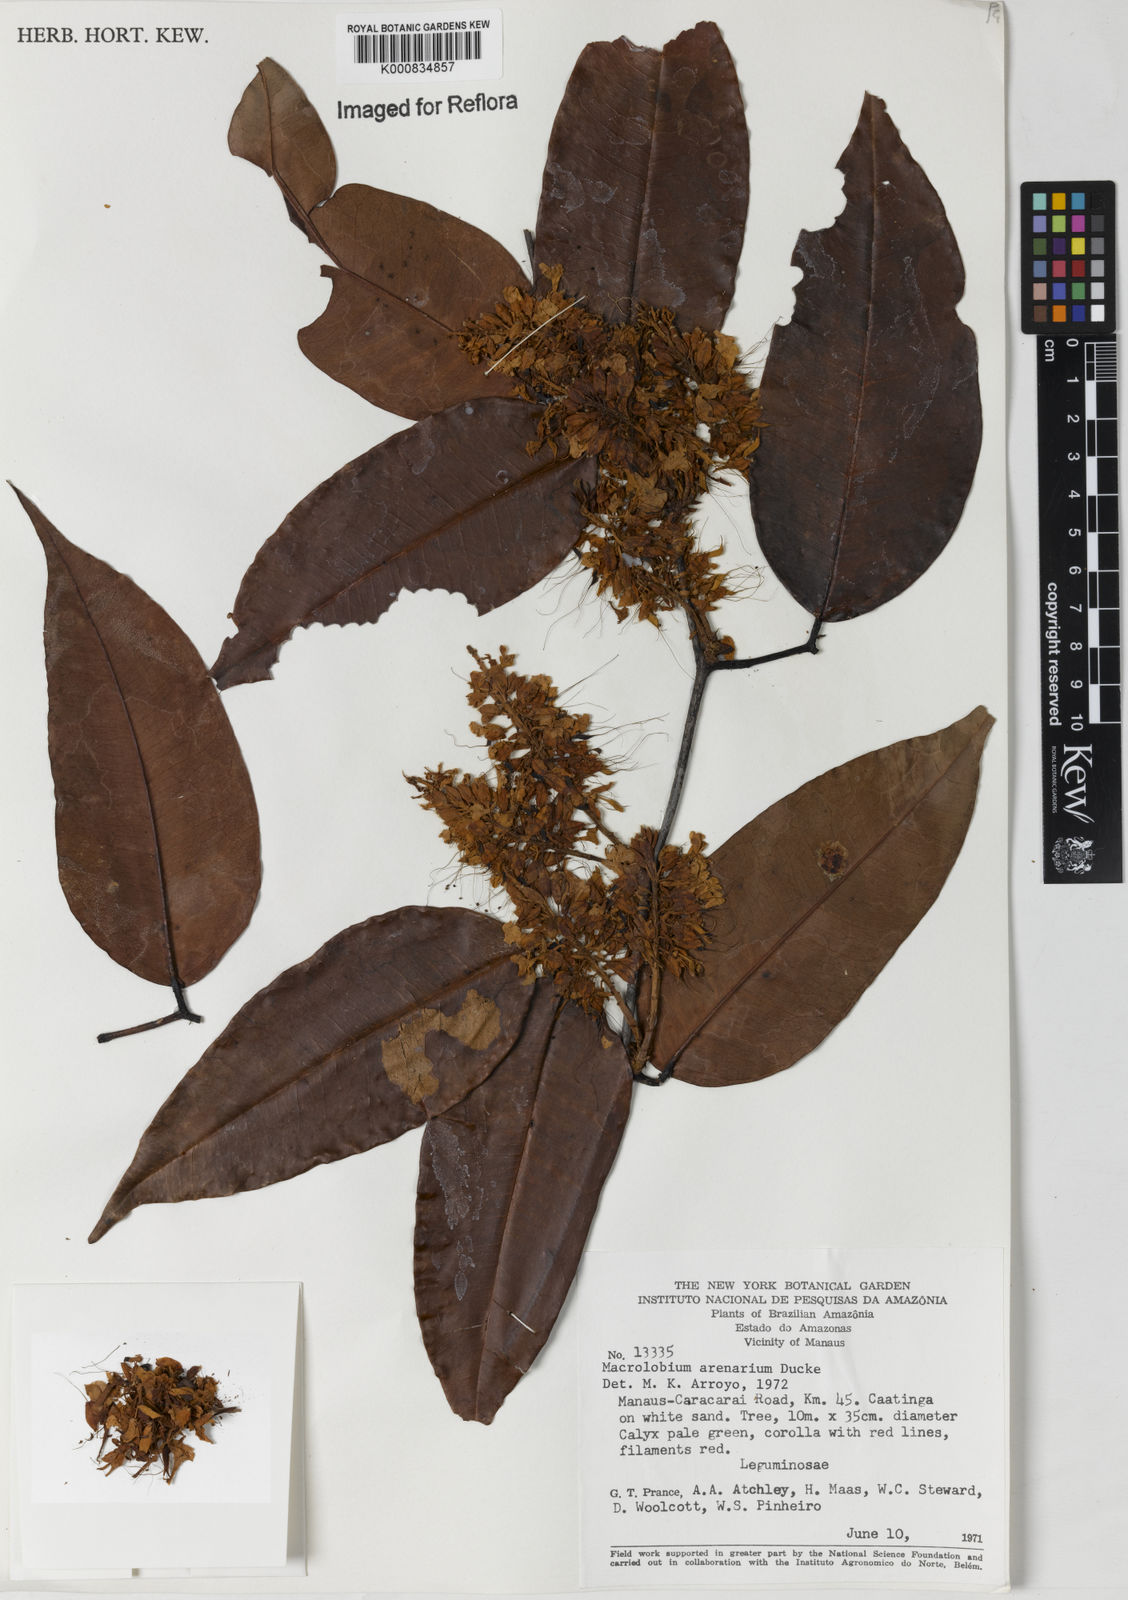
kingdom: Plantae
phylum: Tracheophyta
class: Magnoliopsida
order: Fabales
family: Fabaceae
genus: Macrolobium
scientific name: Macrolobium arenarium
